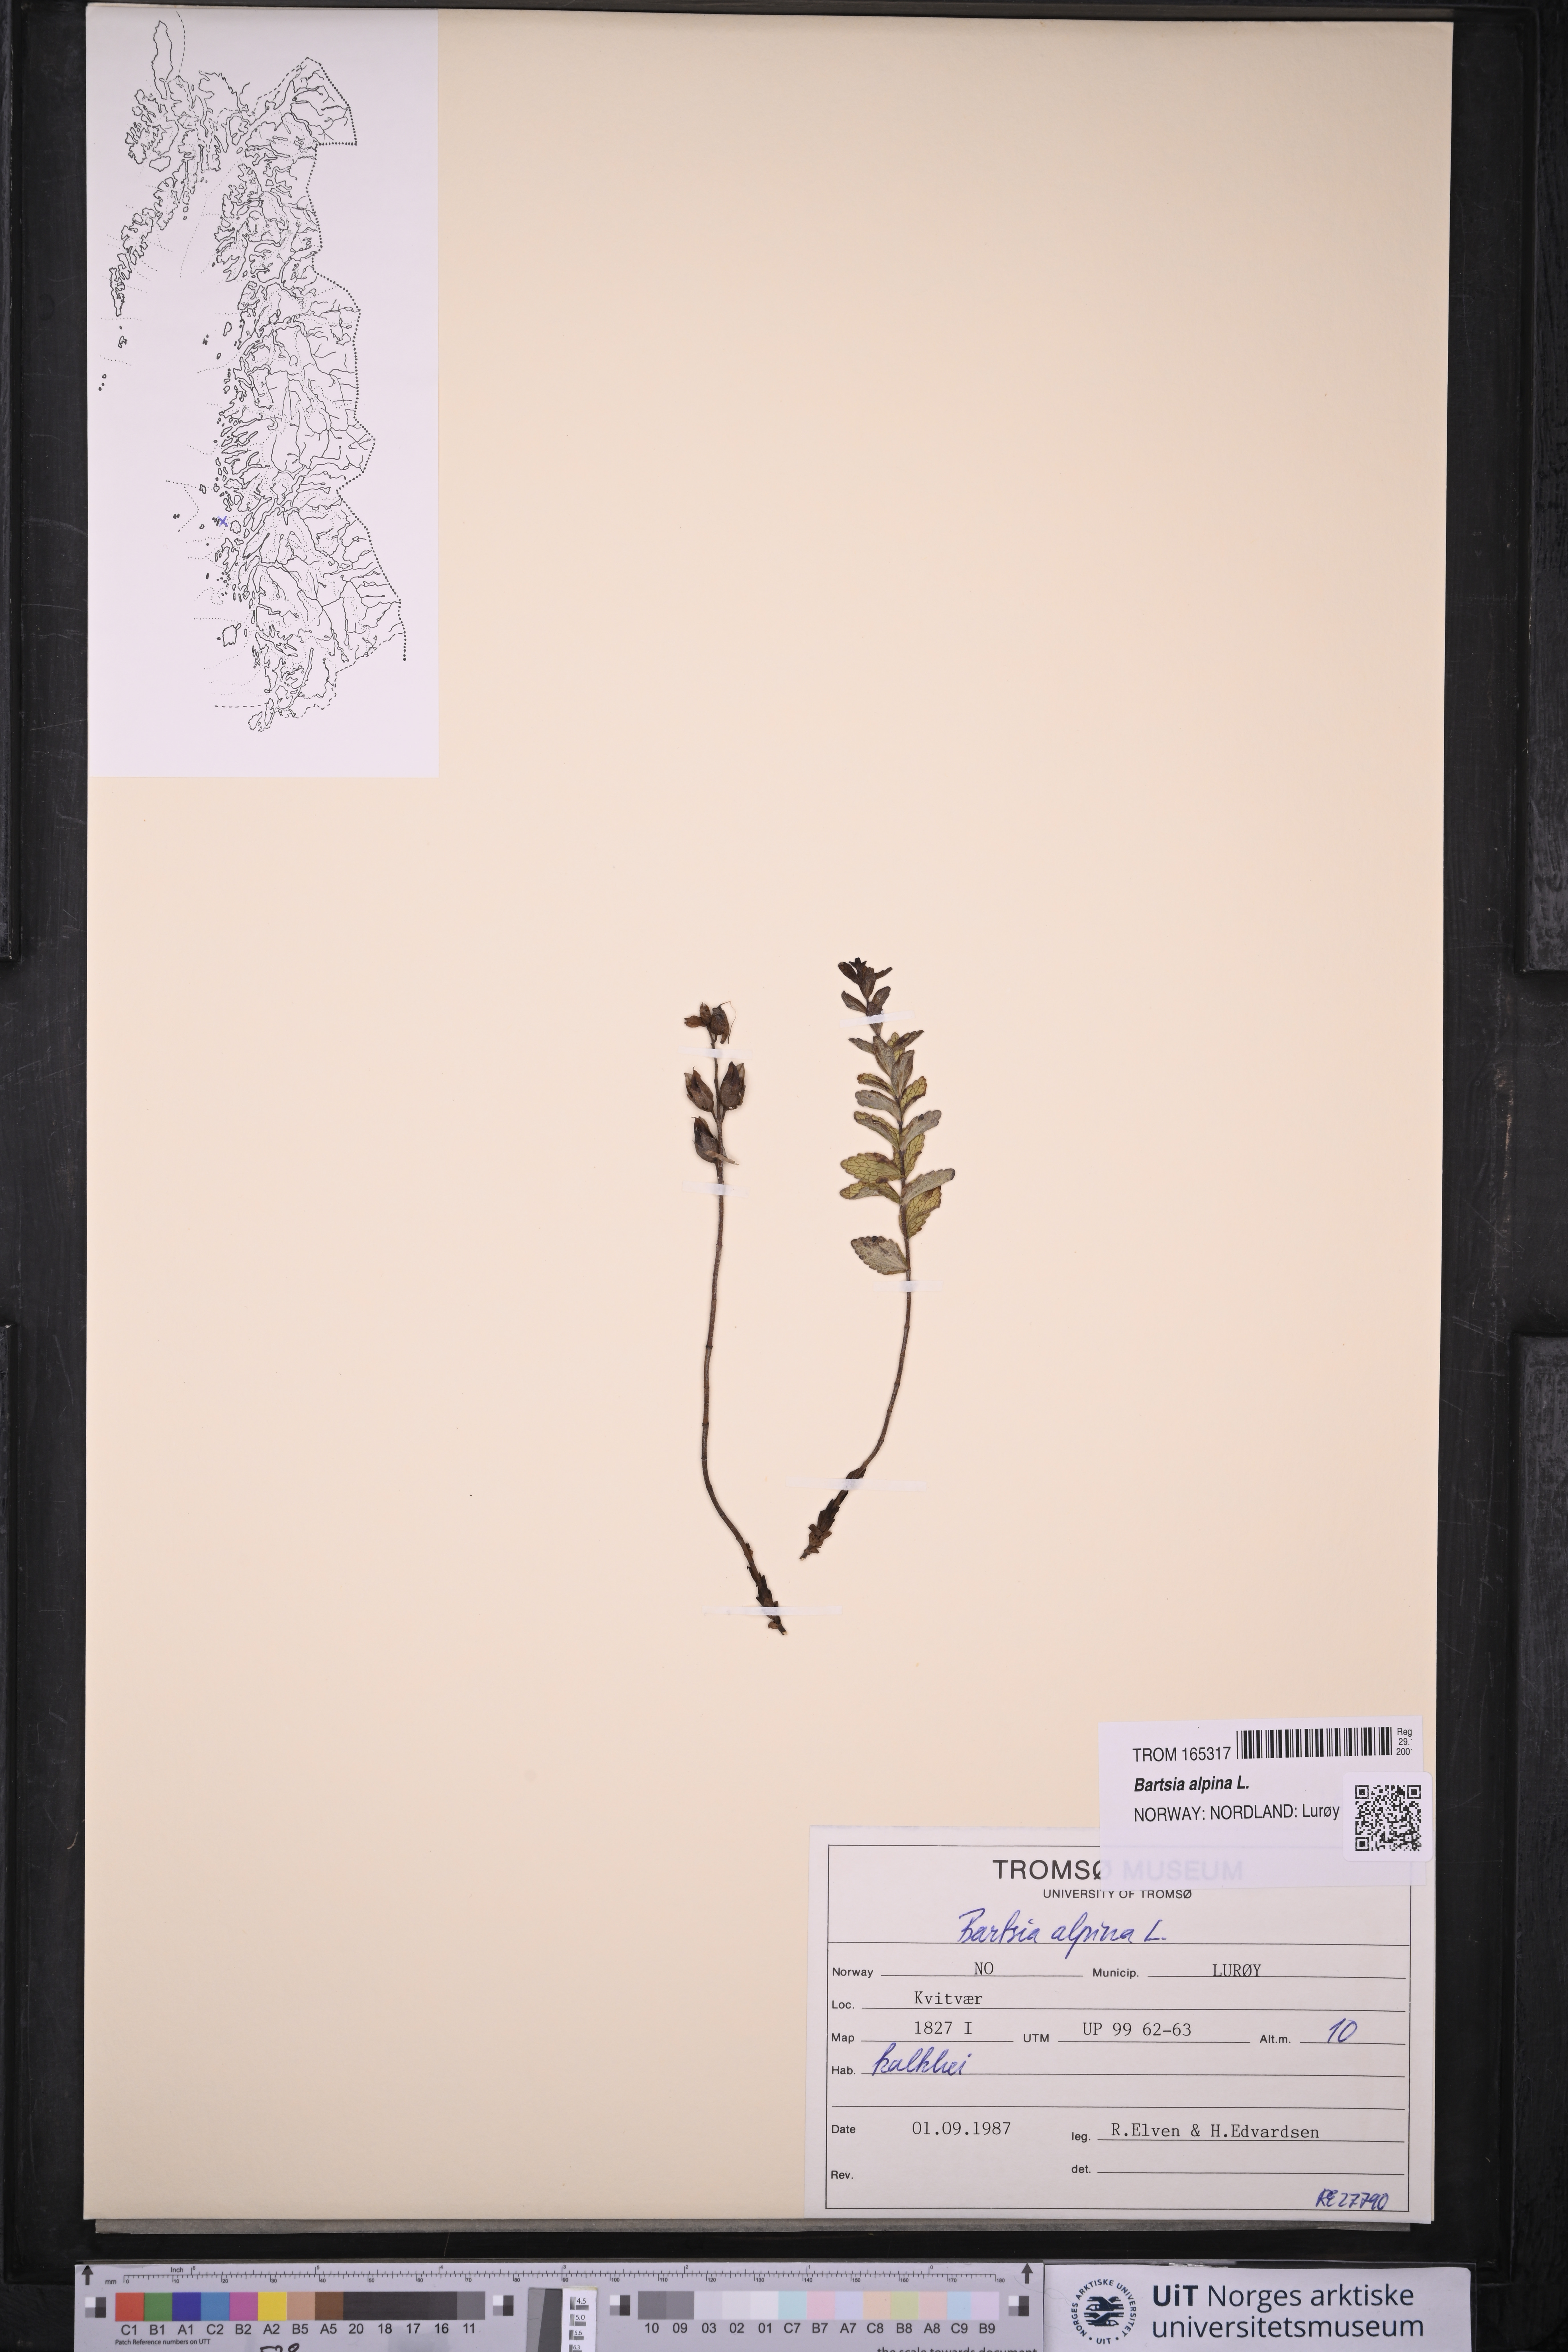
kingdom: Plantae
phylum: Tracheophyta
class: Magnoliopsida
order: Lamiales
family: Orobanchaceae
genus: Bartsia
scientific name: Bartsia alpina
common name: Alpine bartsia
